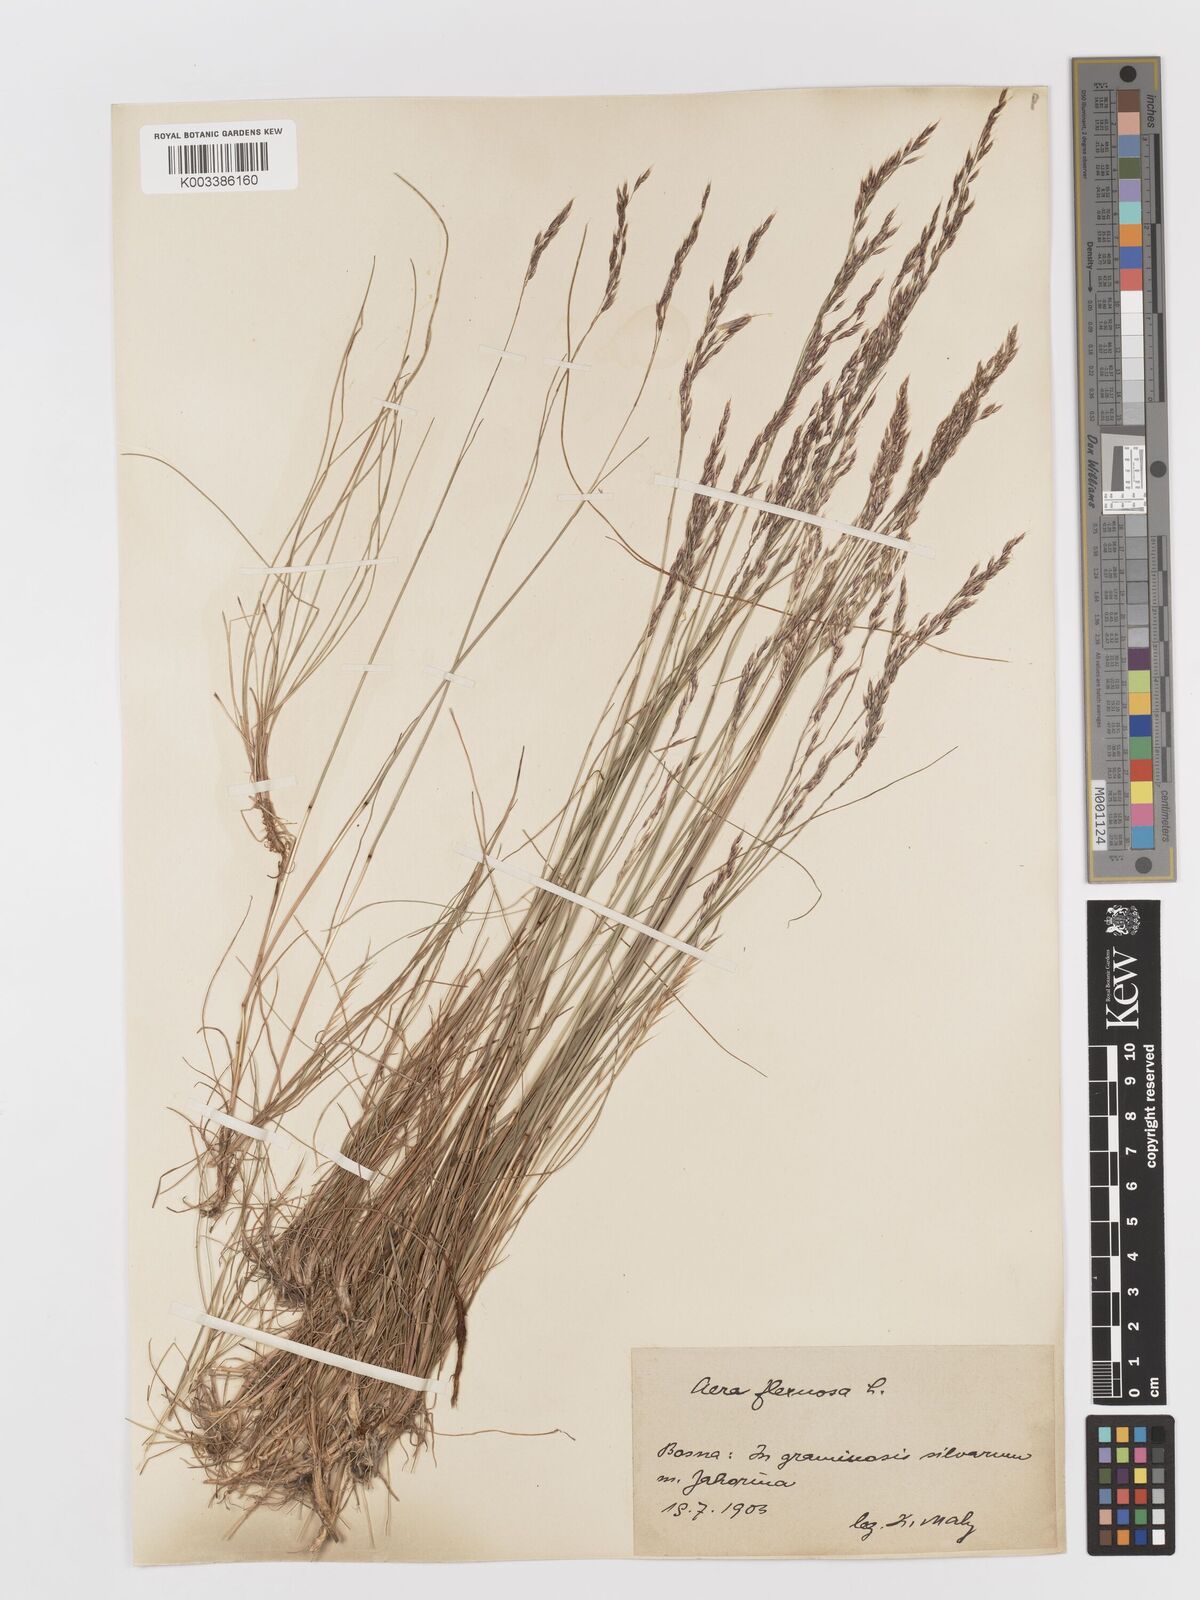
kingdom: Plantae
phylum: Tracheophyta
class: Liliopsida
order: Poales
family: Poaceae
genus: Avenella
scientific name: Avenella flexuosa
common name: Wavy hairgrass
